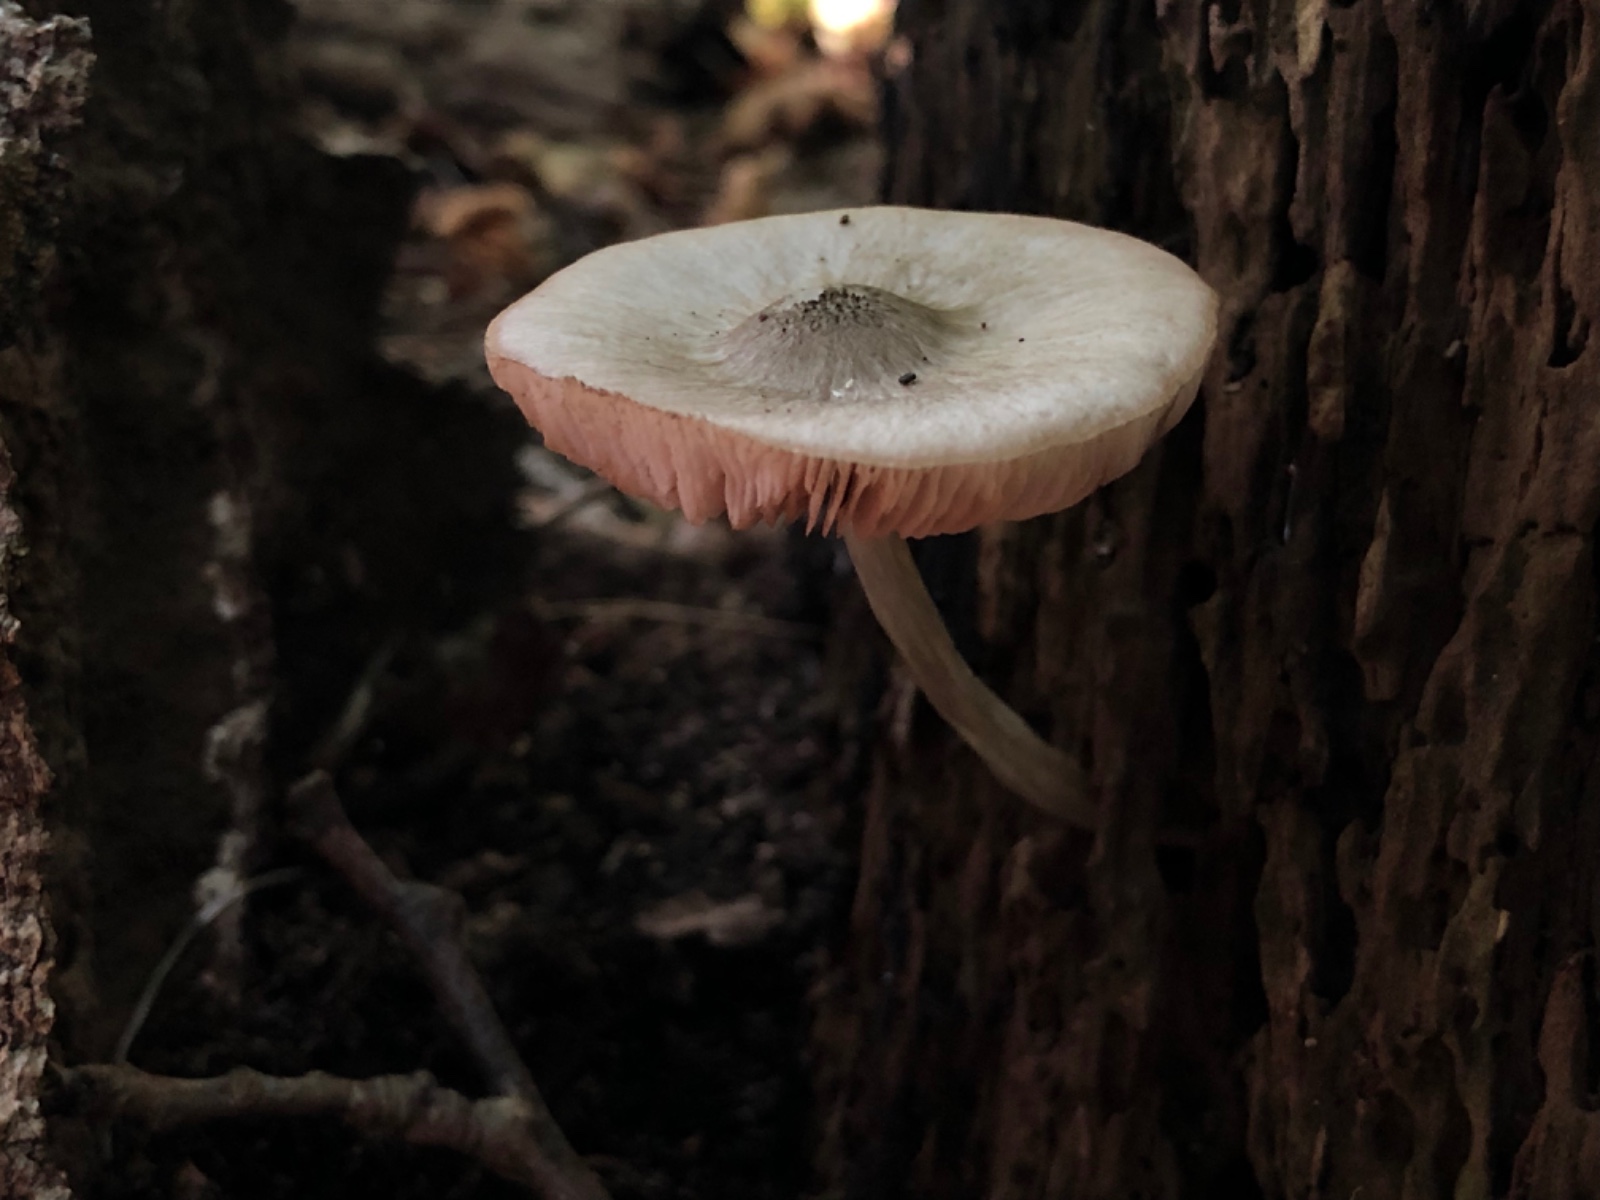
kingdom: Fungi
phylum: Basidiomycota
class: Agaricomycetes
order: Agaricales
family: Pluteaceae
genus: Pluteus
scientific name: Pluteus salicinus
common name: stiv skærmhat
